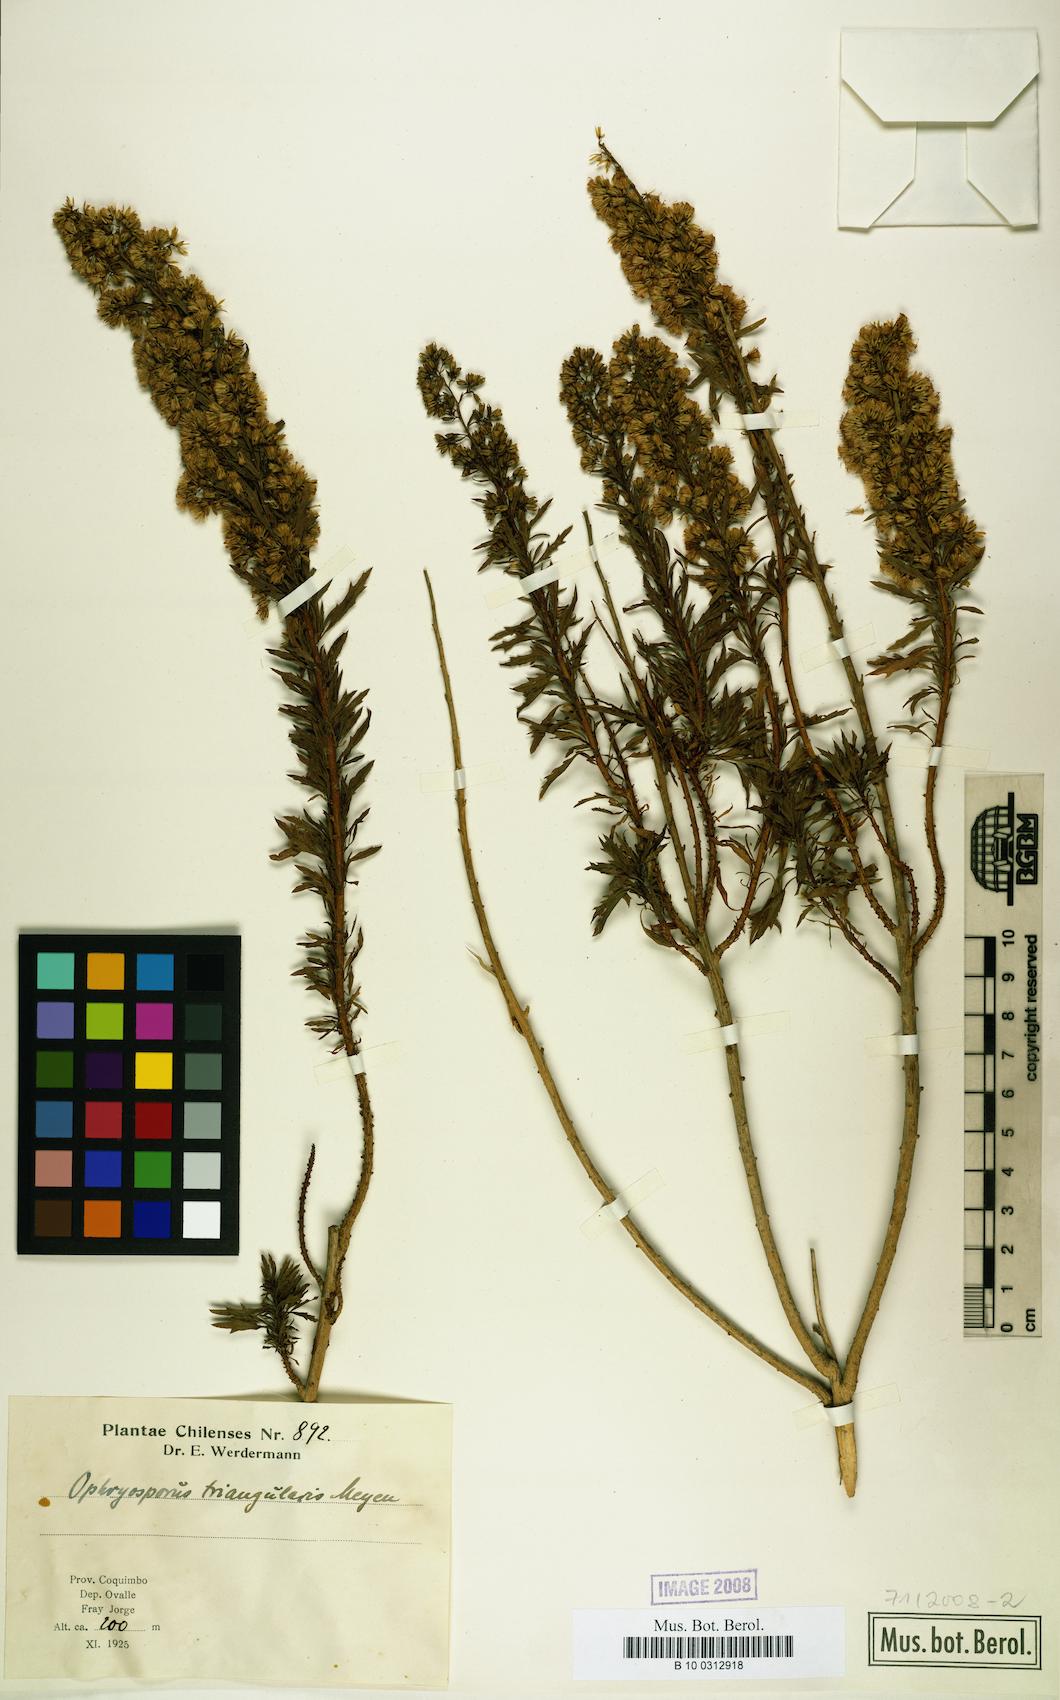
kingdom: Plantae
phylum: Tracheophyta
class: Magnoliopsida
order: Asterales
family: Asteraceae
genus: Ophryosporus
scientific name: Ophryosporus paradoxus
